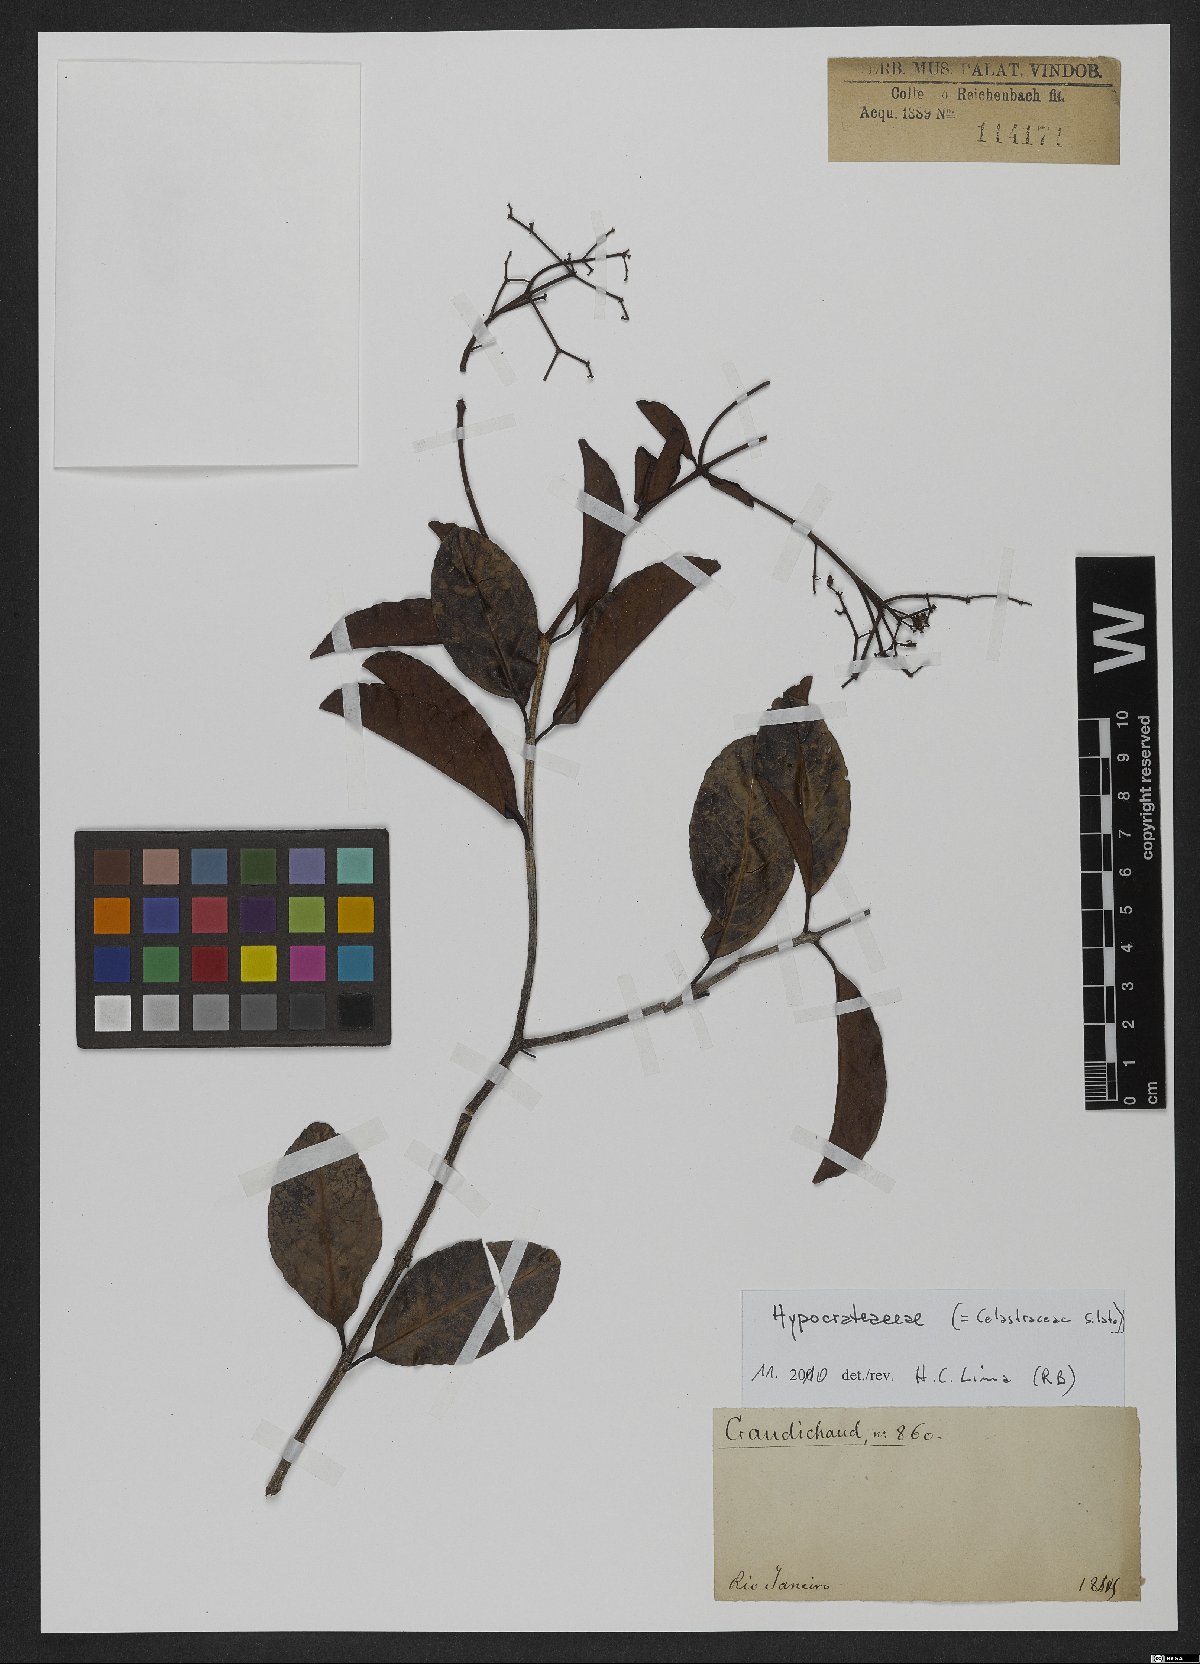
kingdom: Plantae
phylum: Tracheophyta
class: Magnoliopsida
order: Celastrales
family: Celastraceae
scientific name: Celastraceae
